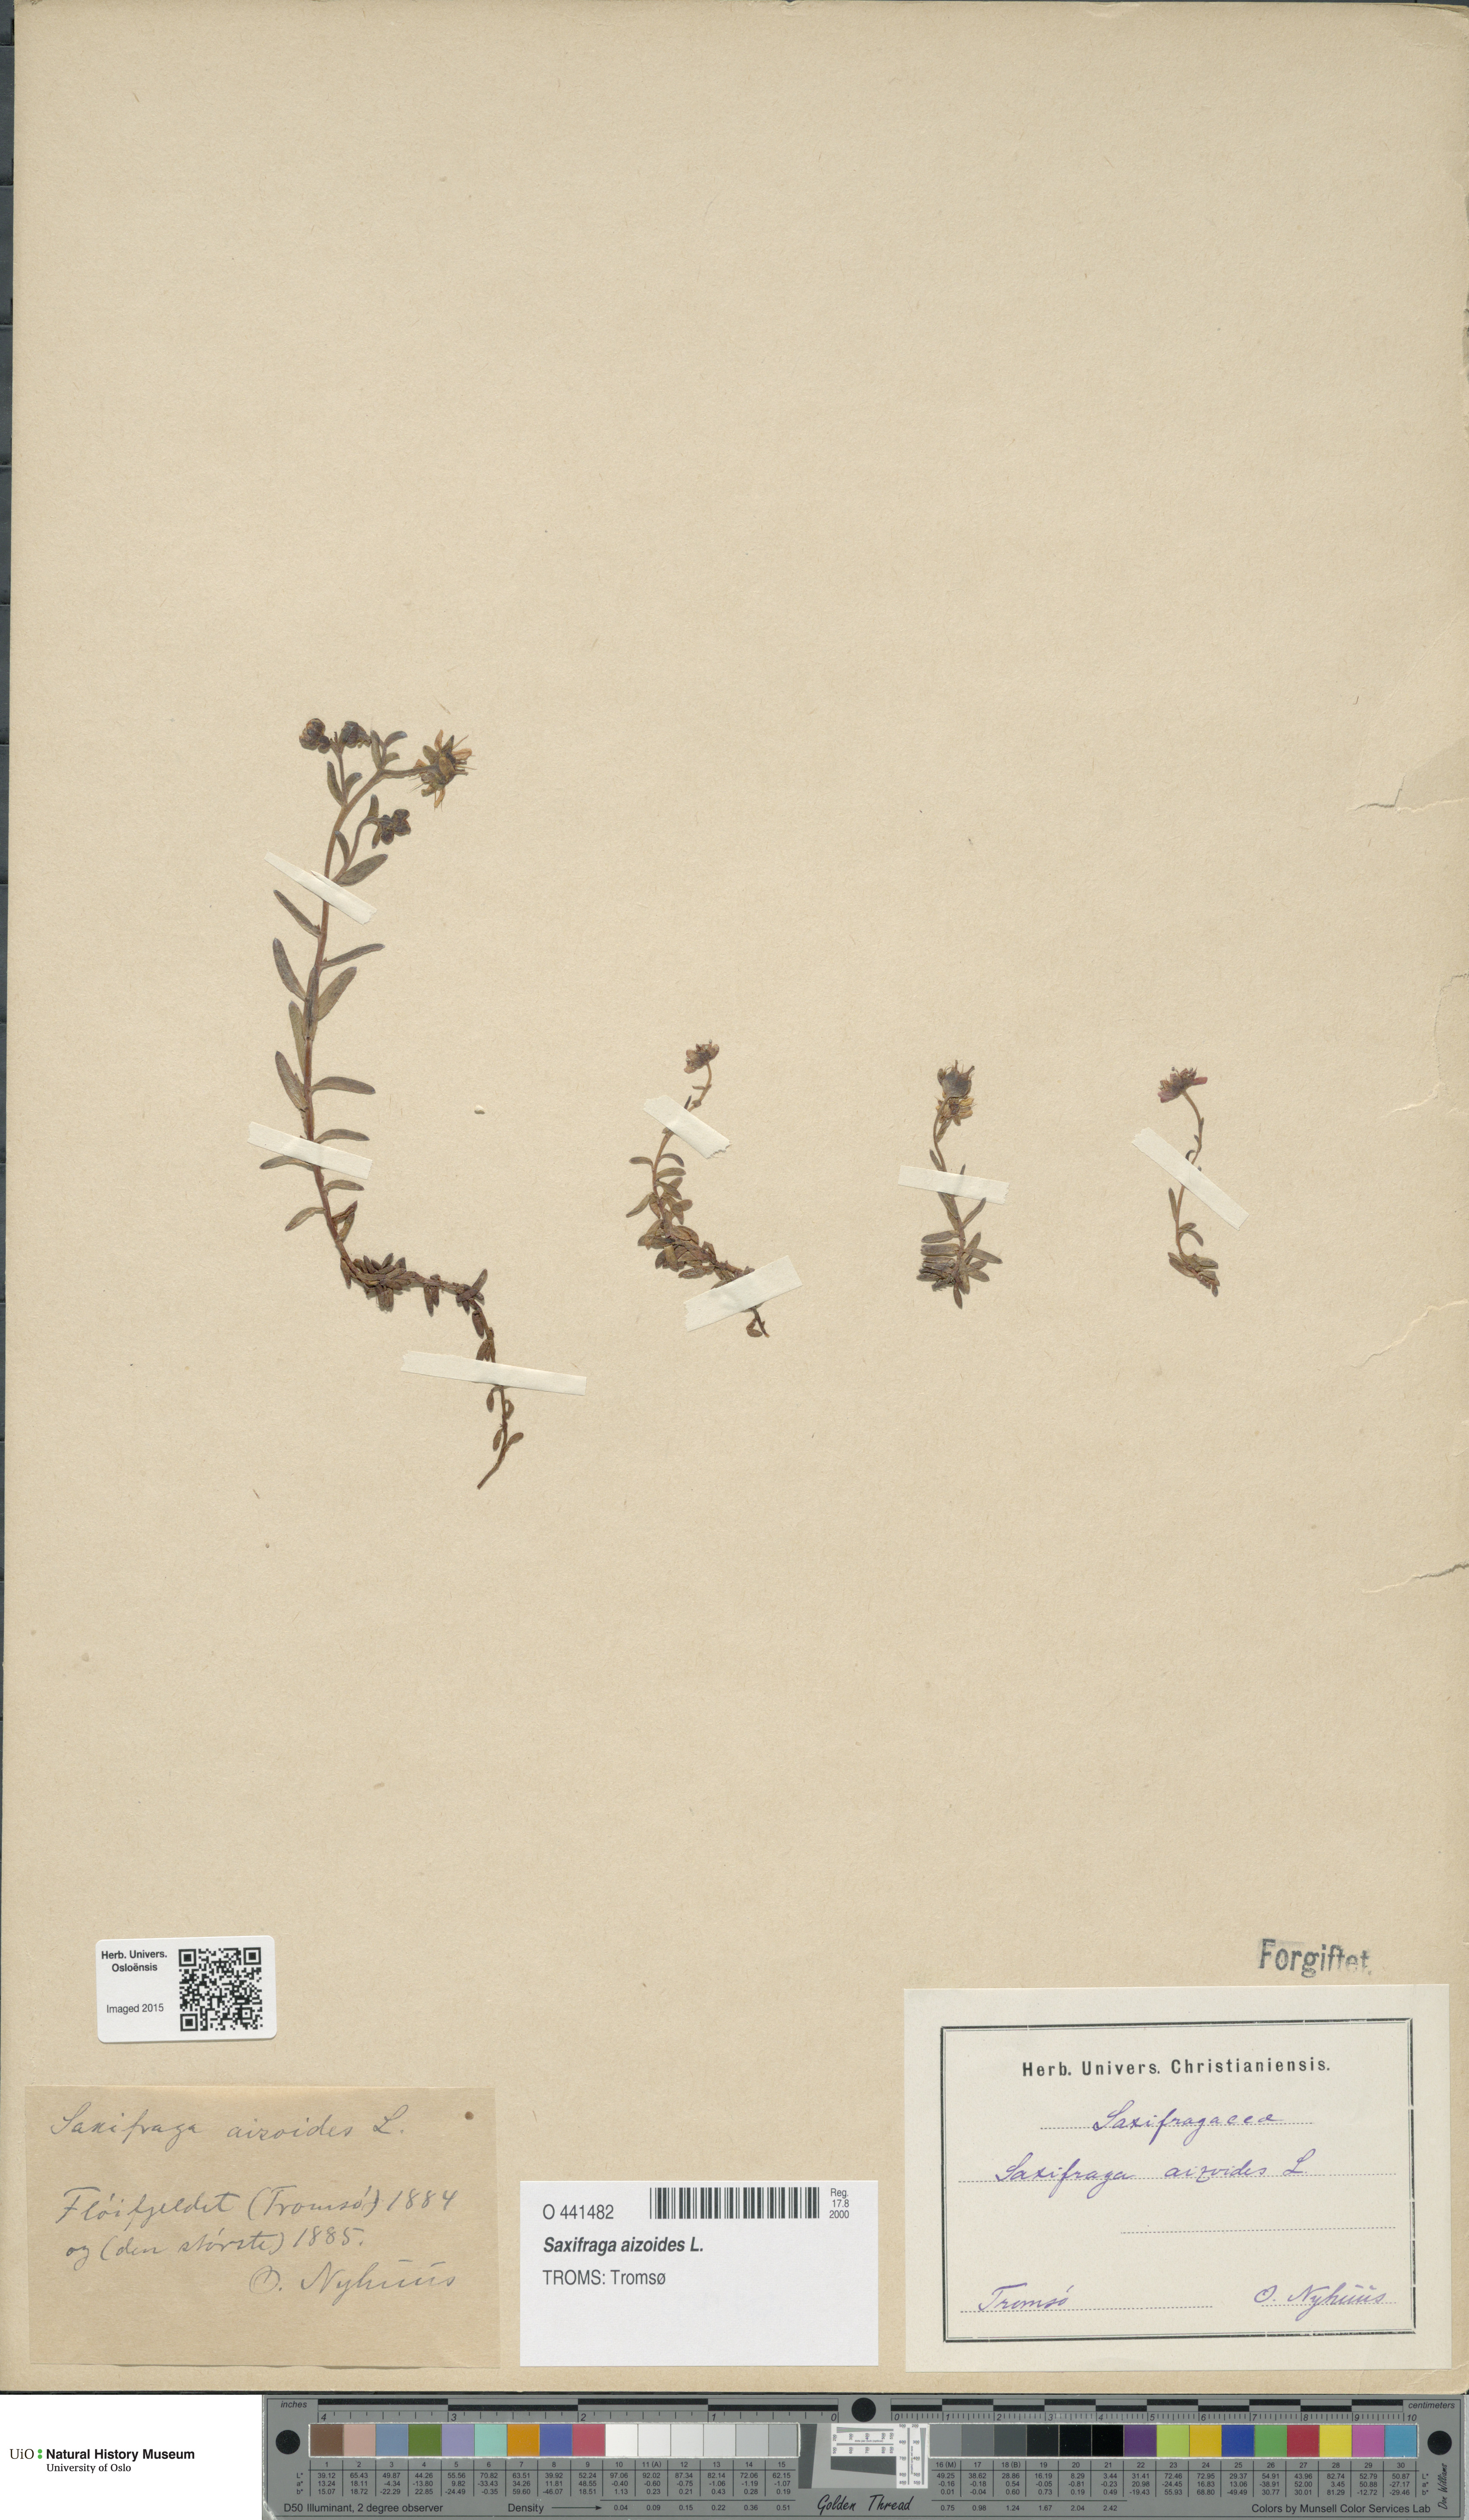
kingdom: Plantae
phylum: Tracheophyta
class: Magnoliopsida
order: Saxifragales
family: Saxifragaceae
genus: Saxifraga
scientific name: Saxifraga aizoides
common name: Yellow mountain saxifrage
